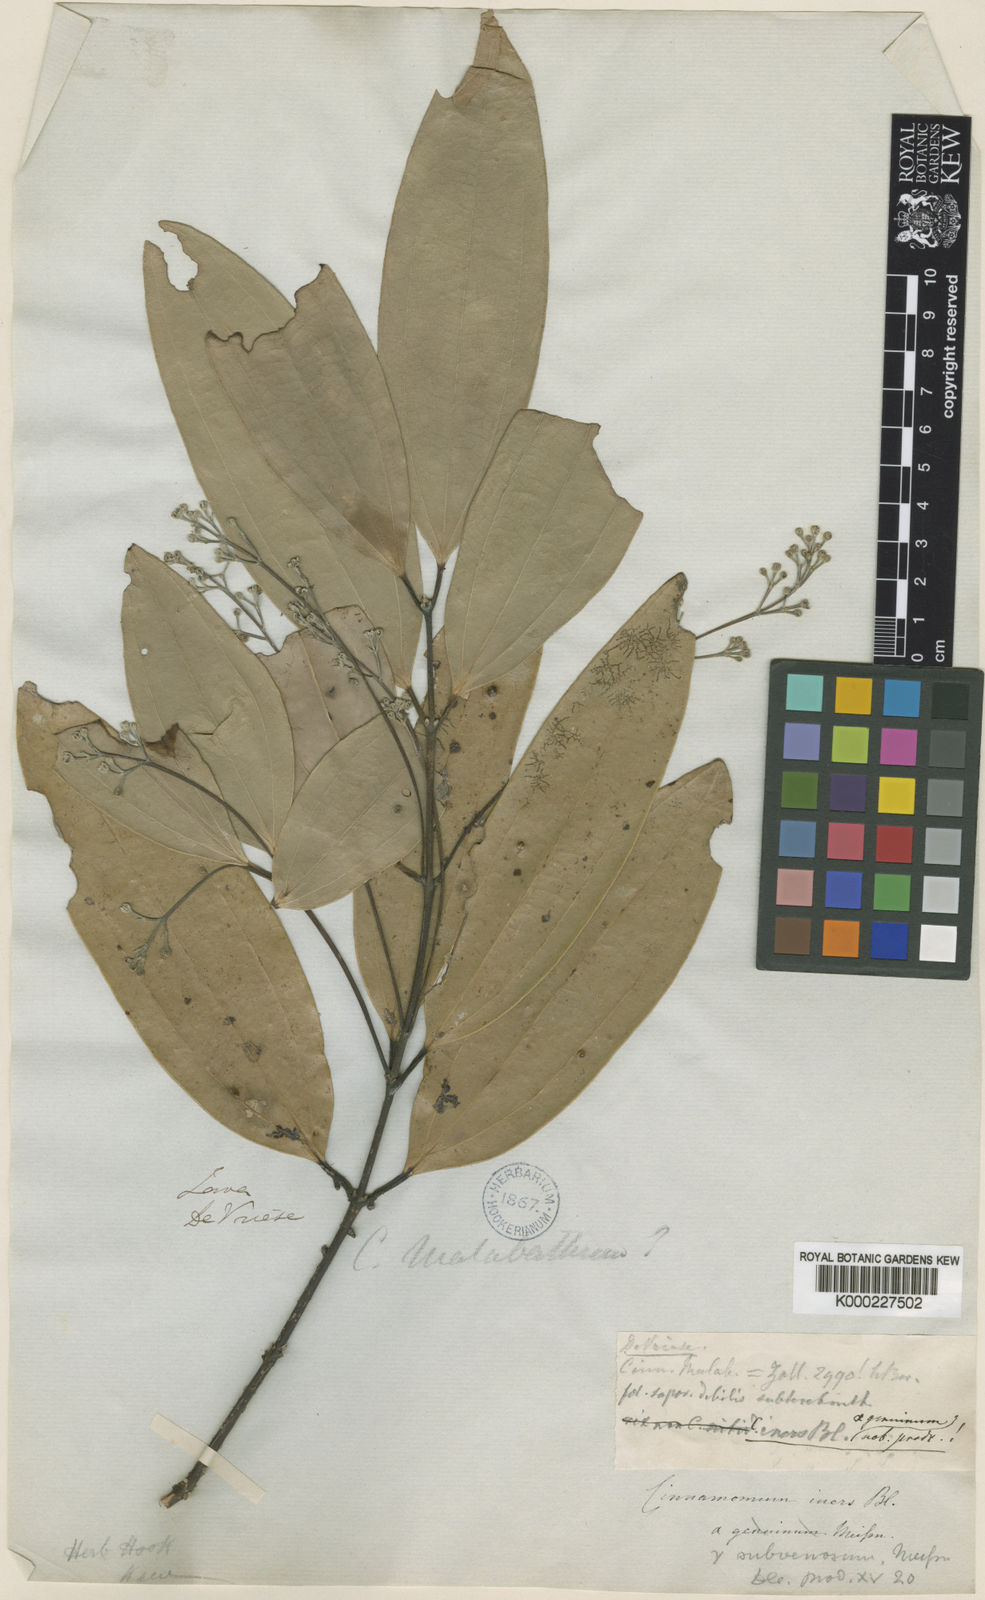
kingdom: Plantae
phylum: Tracheophyta
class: Magnoliopsida
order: Laurales
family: Lauraceae
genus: Cinnamomum
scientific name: Cinnamomum iners
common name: Wild cinnamon
